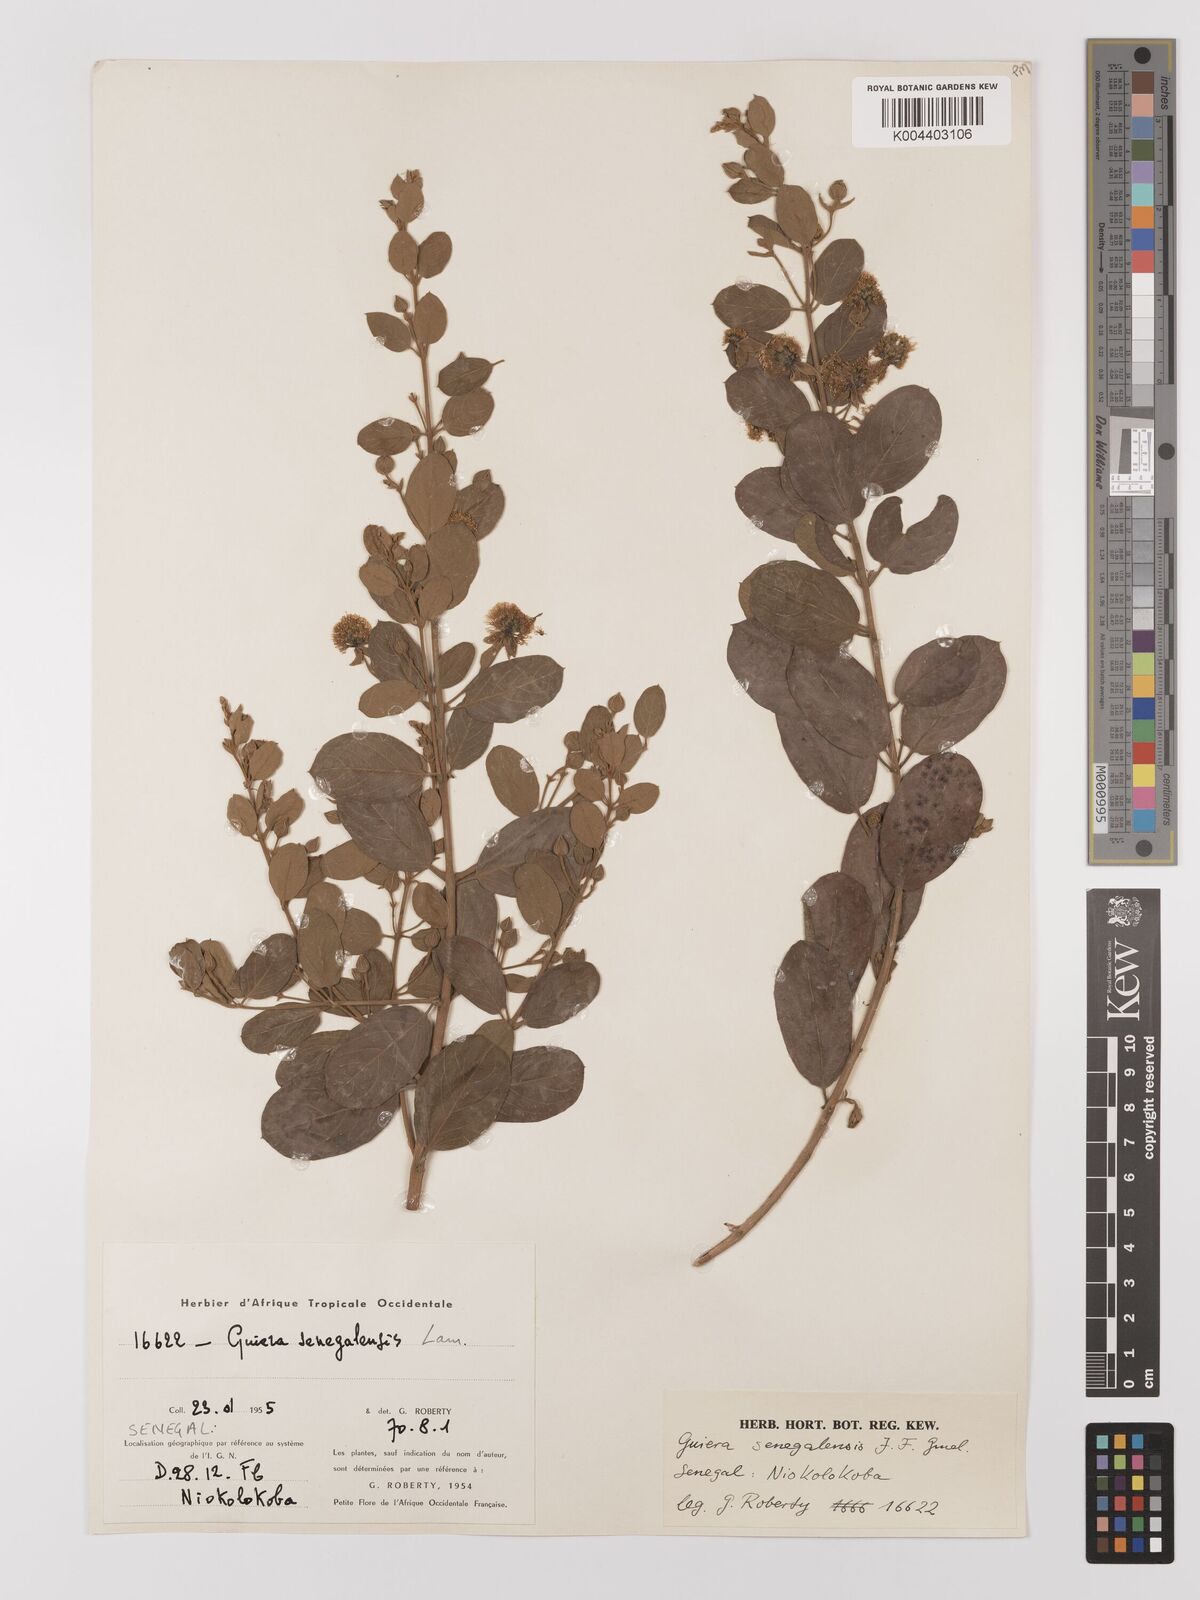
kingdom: Plantae
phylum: Tracheophyta
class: Magnoliopsida
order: Myrtales
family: Combretaceae
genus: Guiera
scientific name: Guiera senegalensis
